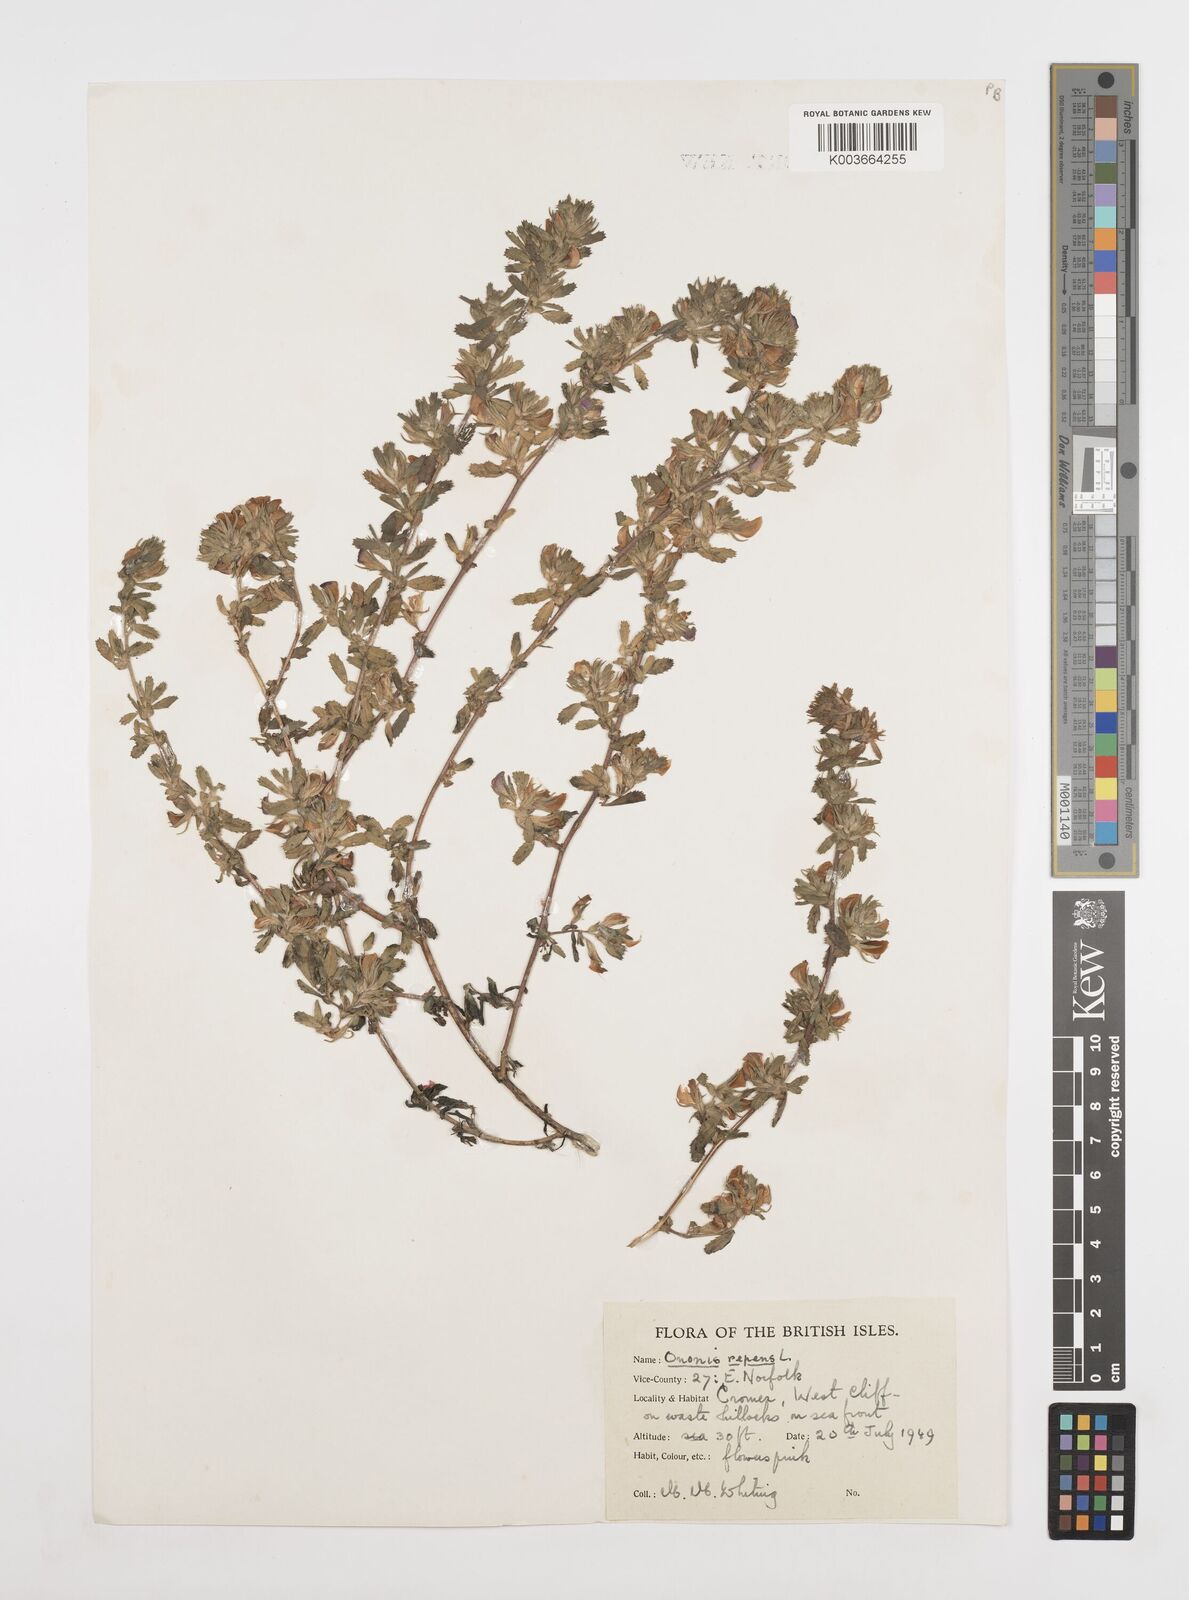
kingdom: Plantae
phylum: Tracheophyta
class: Magnoliopsida
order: Fabales
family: Fabaceae
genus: Ononis
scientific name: Ononis spinosa
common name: Spiny restharrow
